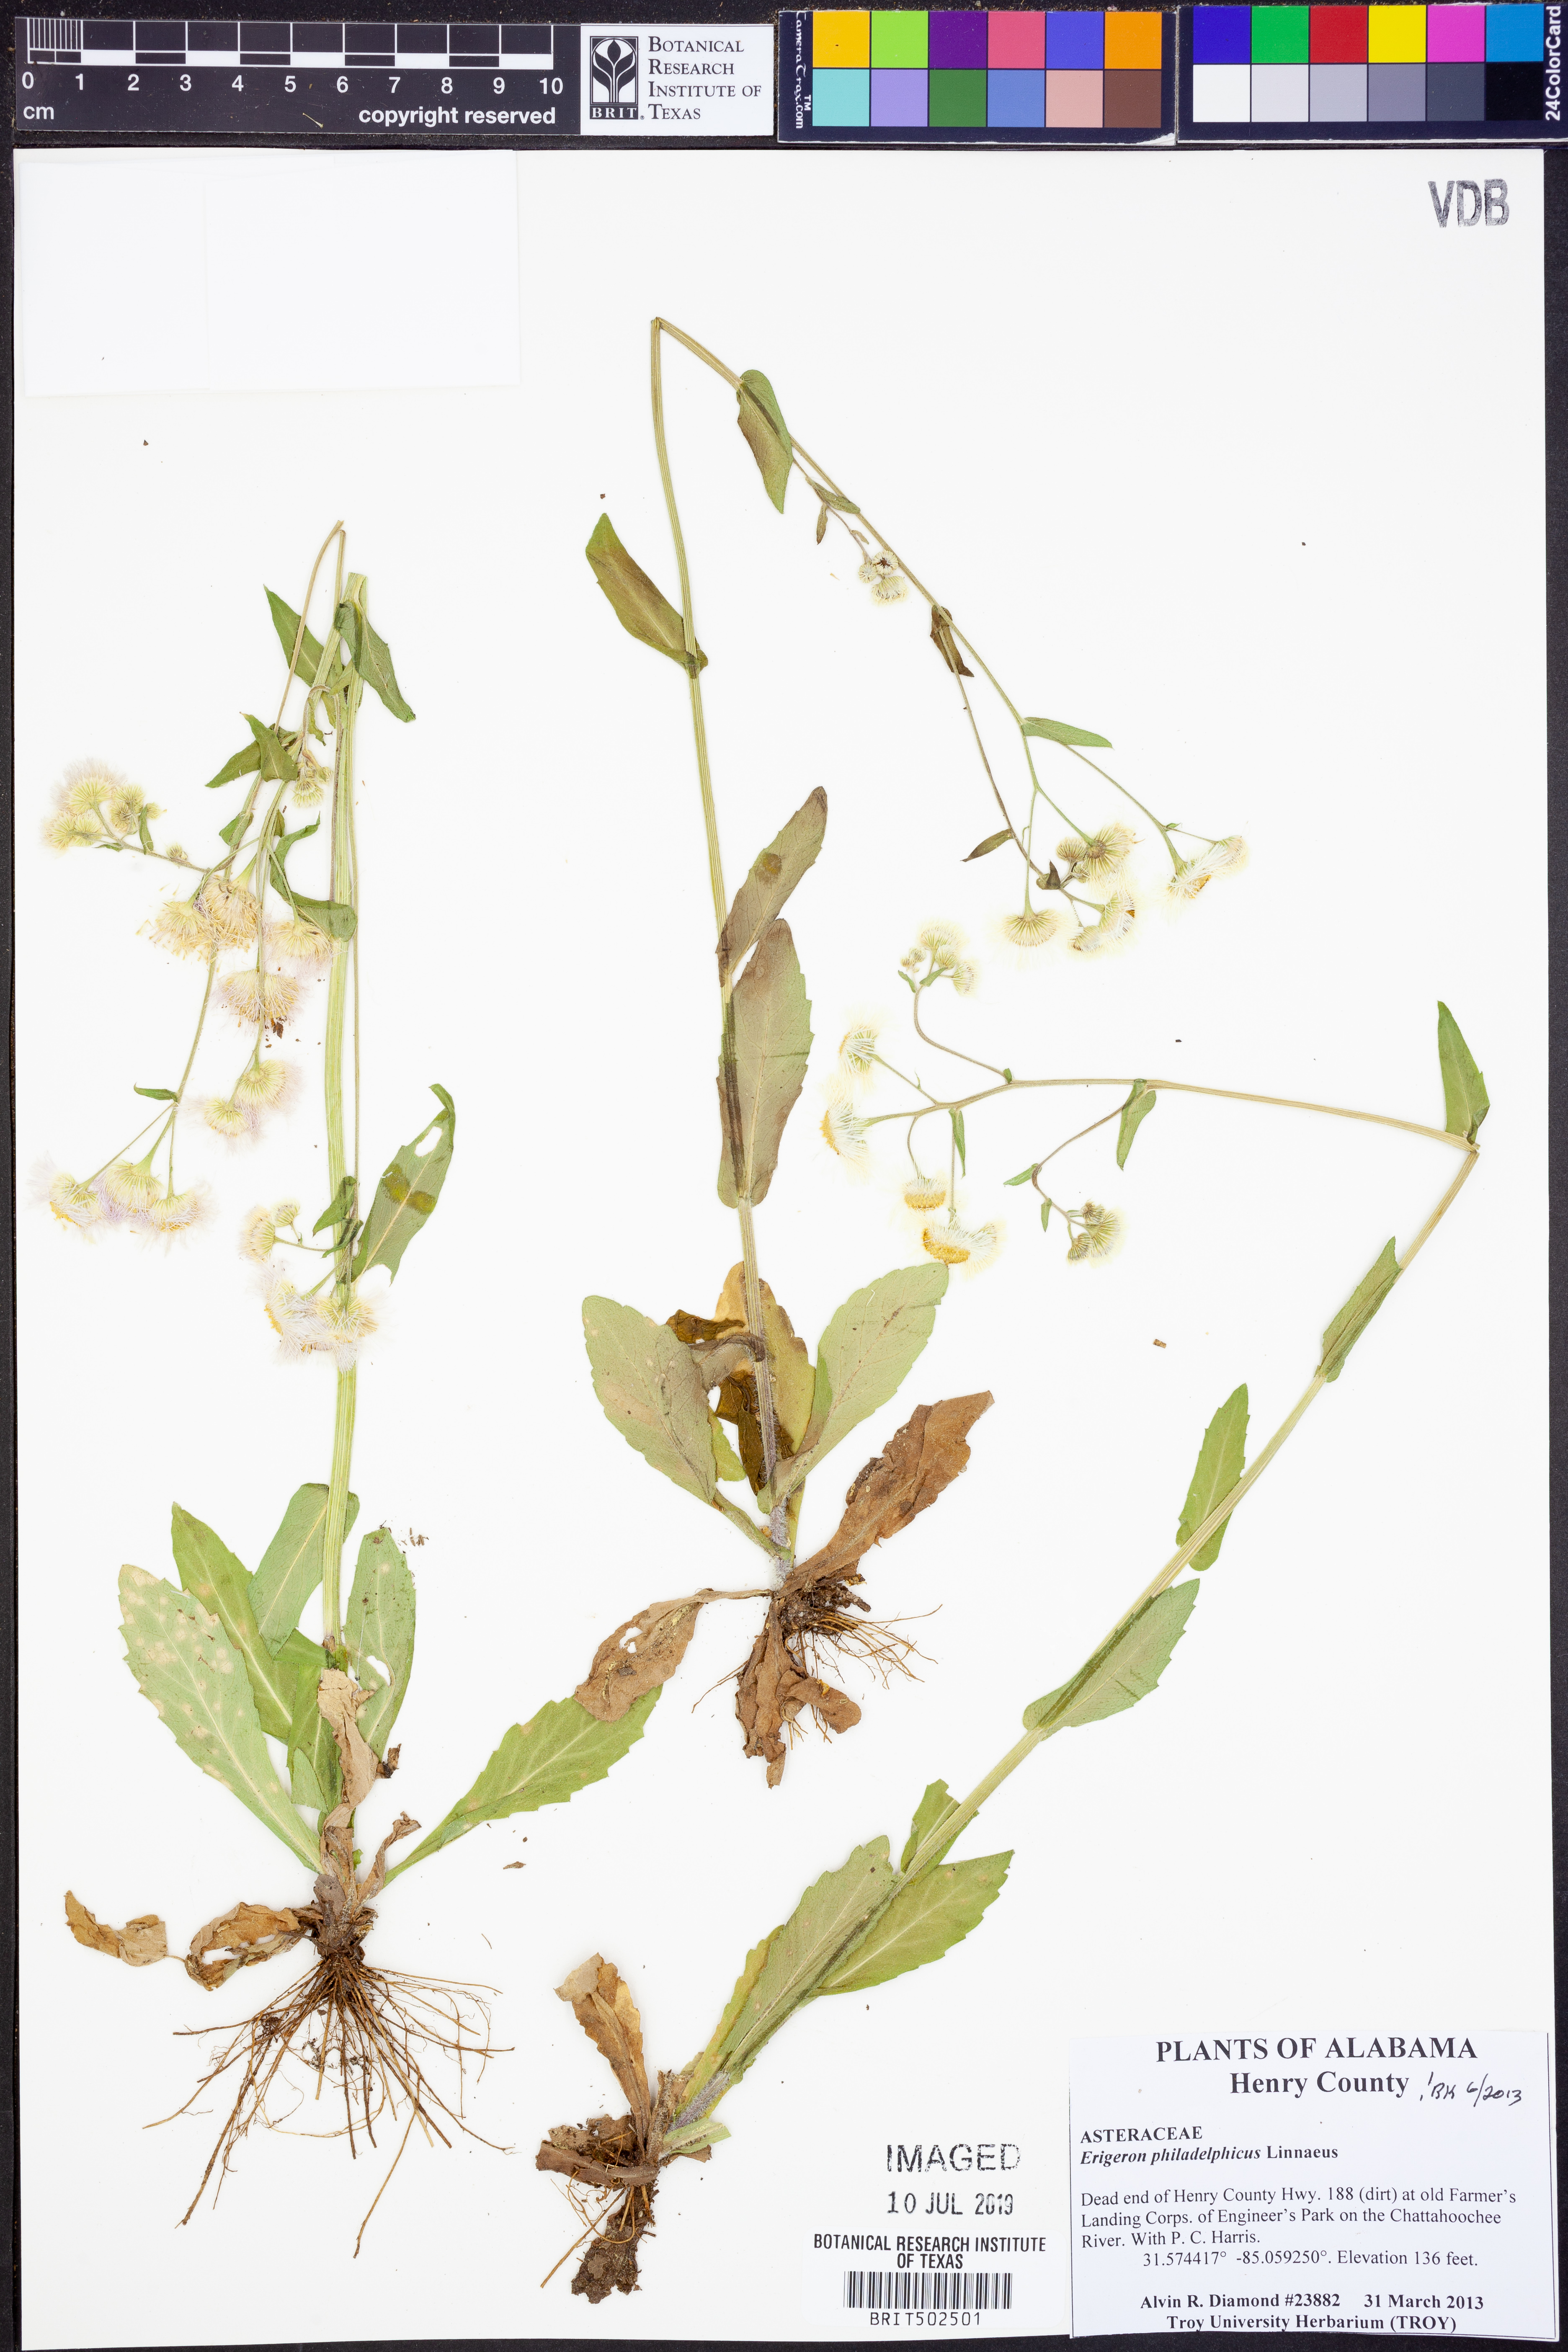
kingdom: Plantae
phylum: Tracheophyta
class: Magnoliopsida
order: Asterales
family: Asteraceae
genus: Erigeron
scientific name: Erigeron philadelphicus
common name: Robin's-plantain
